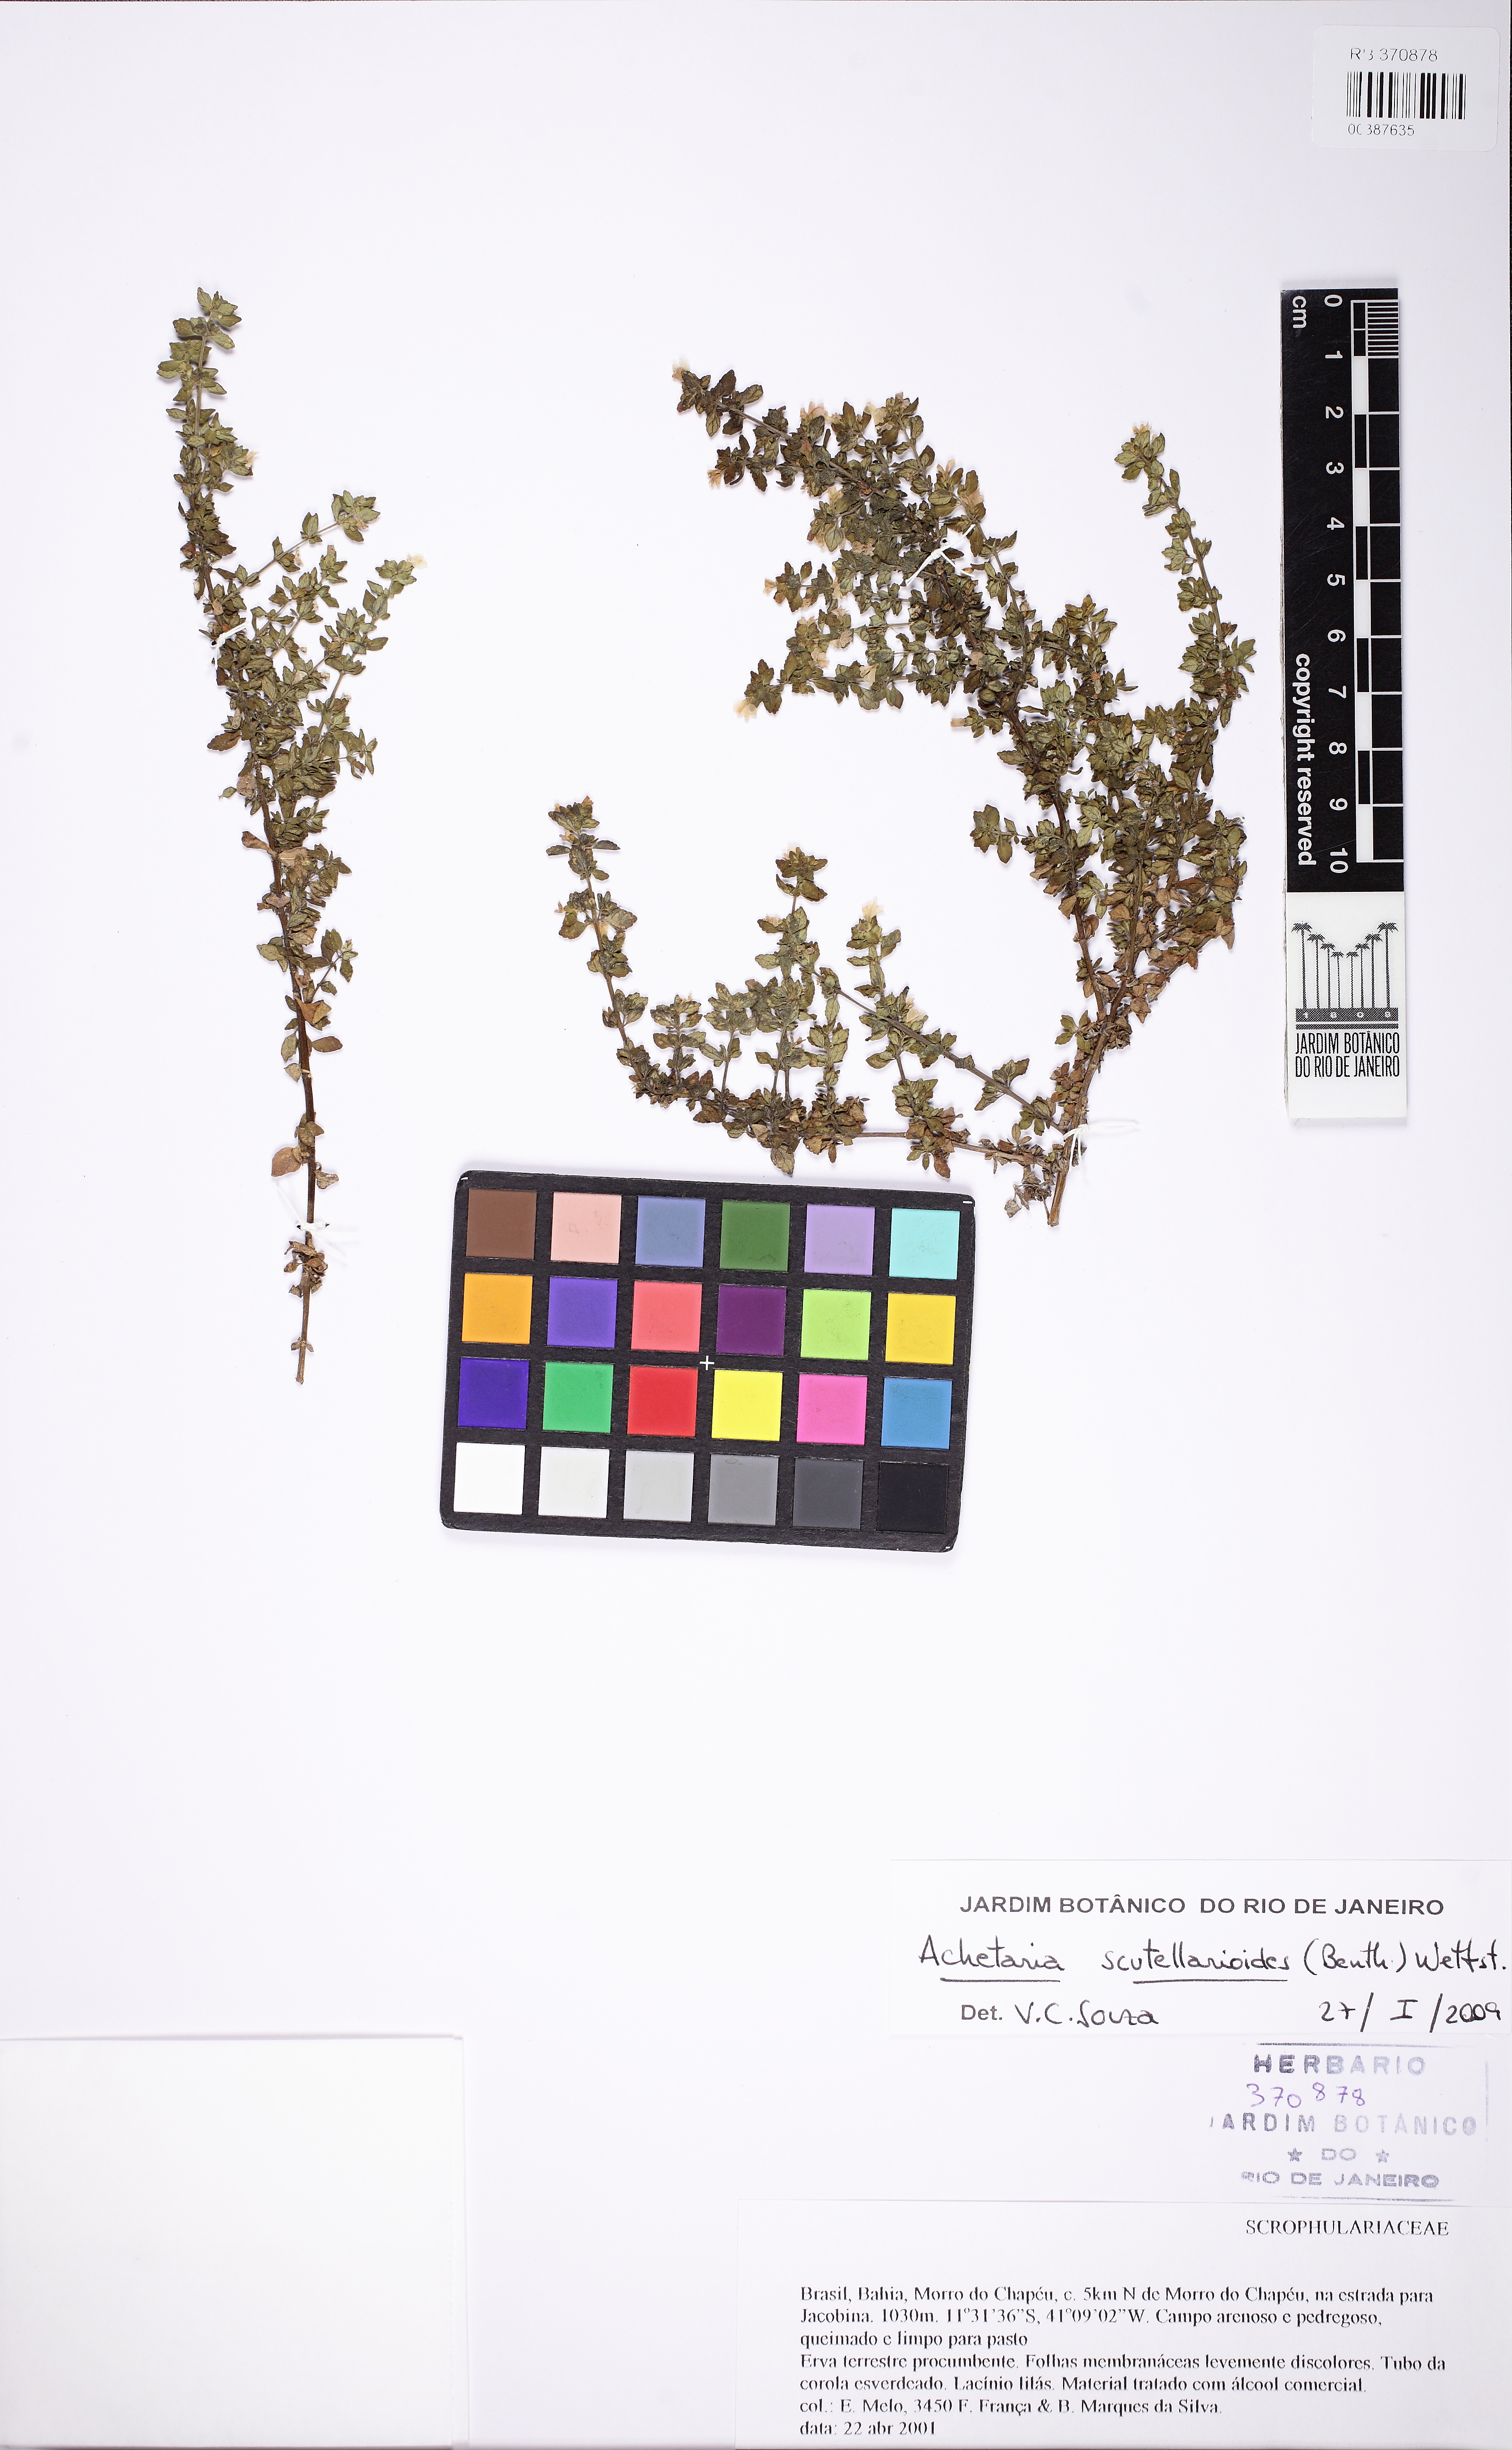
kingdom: Plantae
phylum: Tracheophyta
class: Magnoliopsida
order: Lamiales
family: Plantaginaceae
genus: Matourea
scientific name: Matourea pratensis
